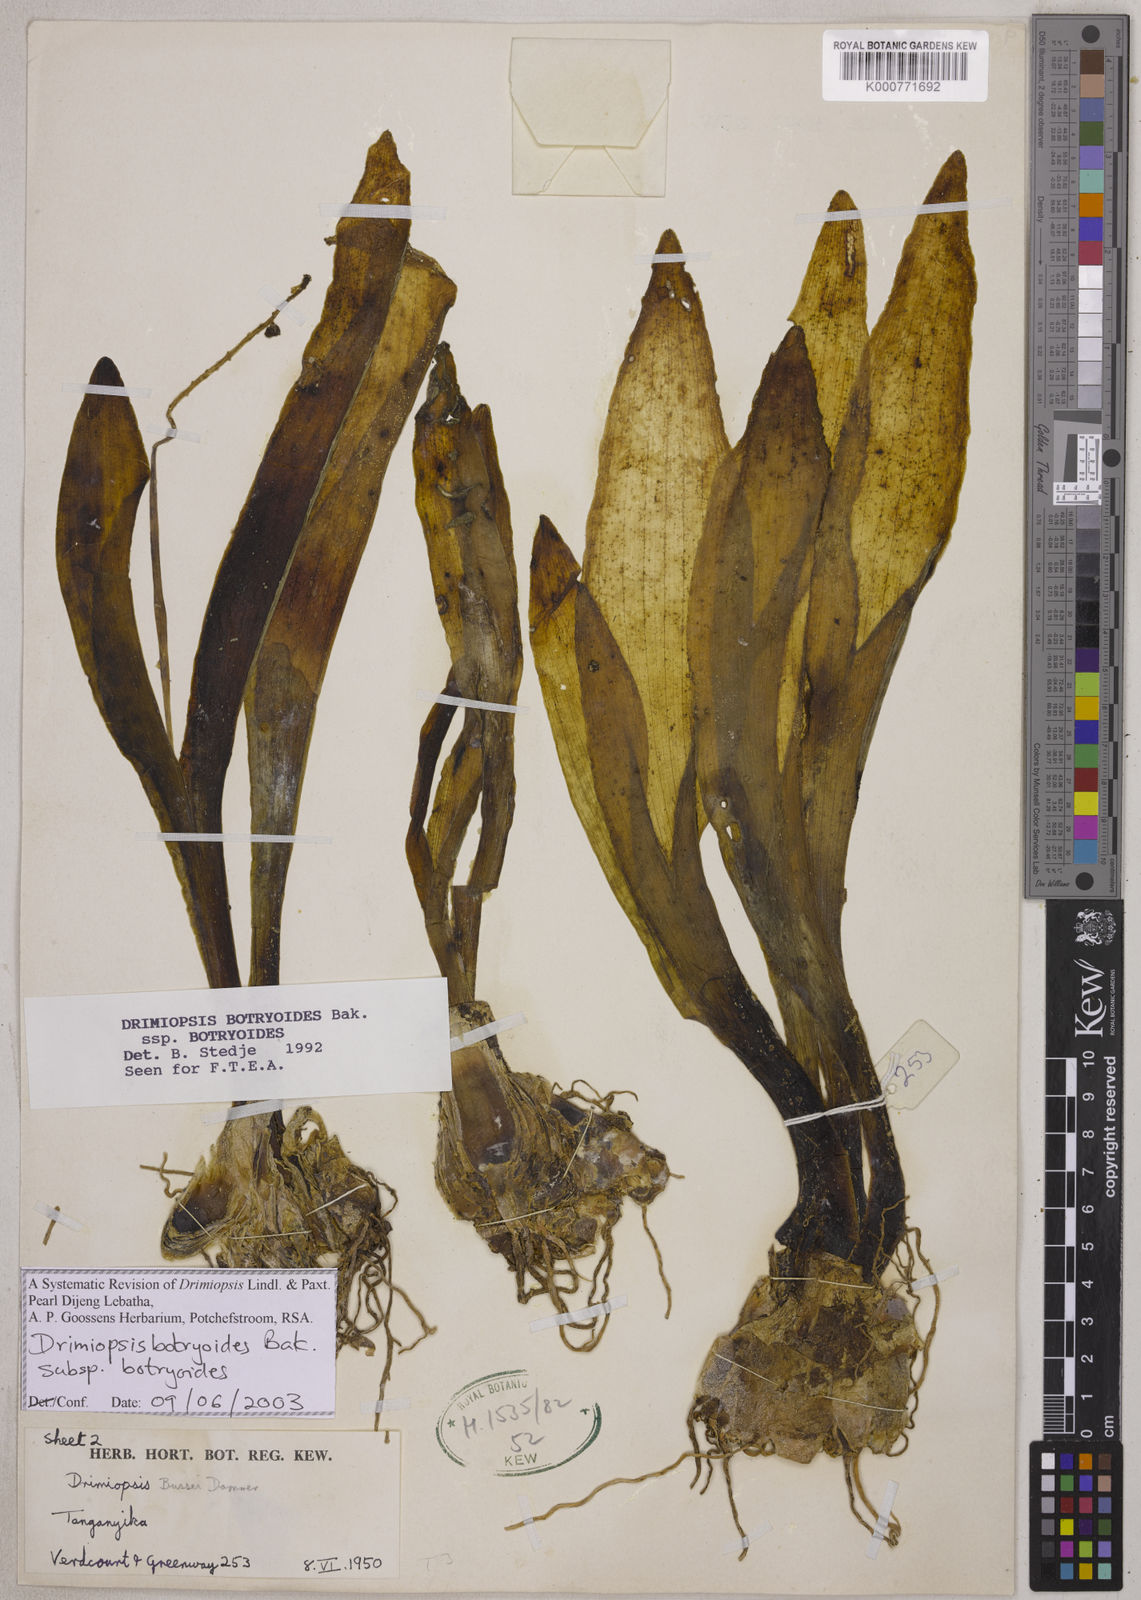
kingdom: Plantae
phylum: Tracheophyta
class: Liliopsida
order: Asparagales
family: Asparagaceae
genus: Drimiopsis
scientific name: Drimiopsis botryoides
